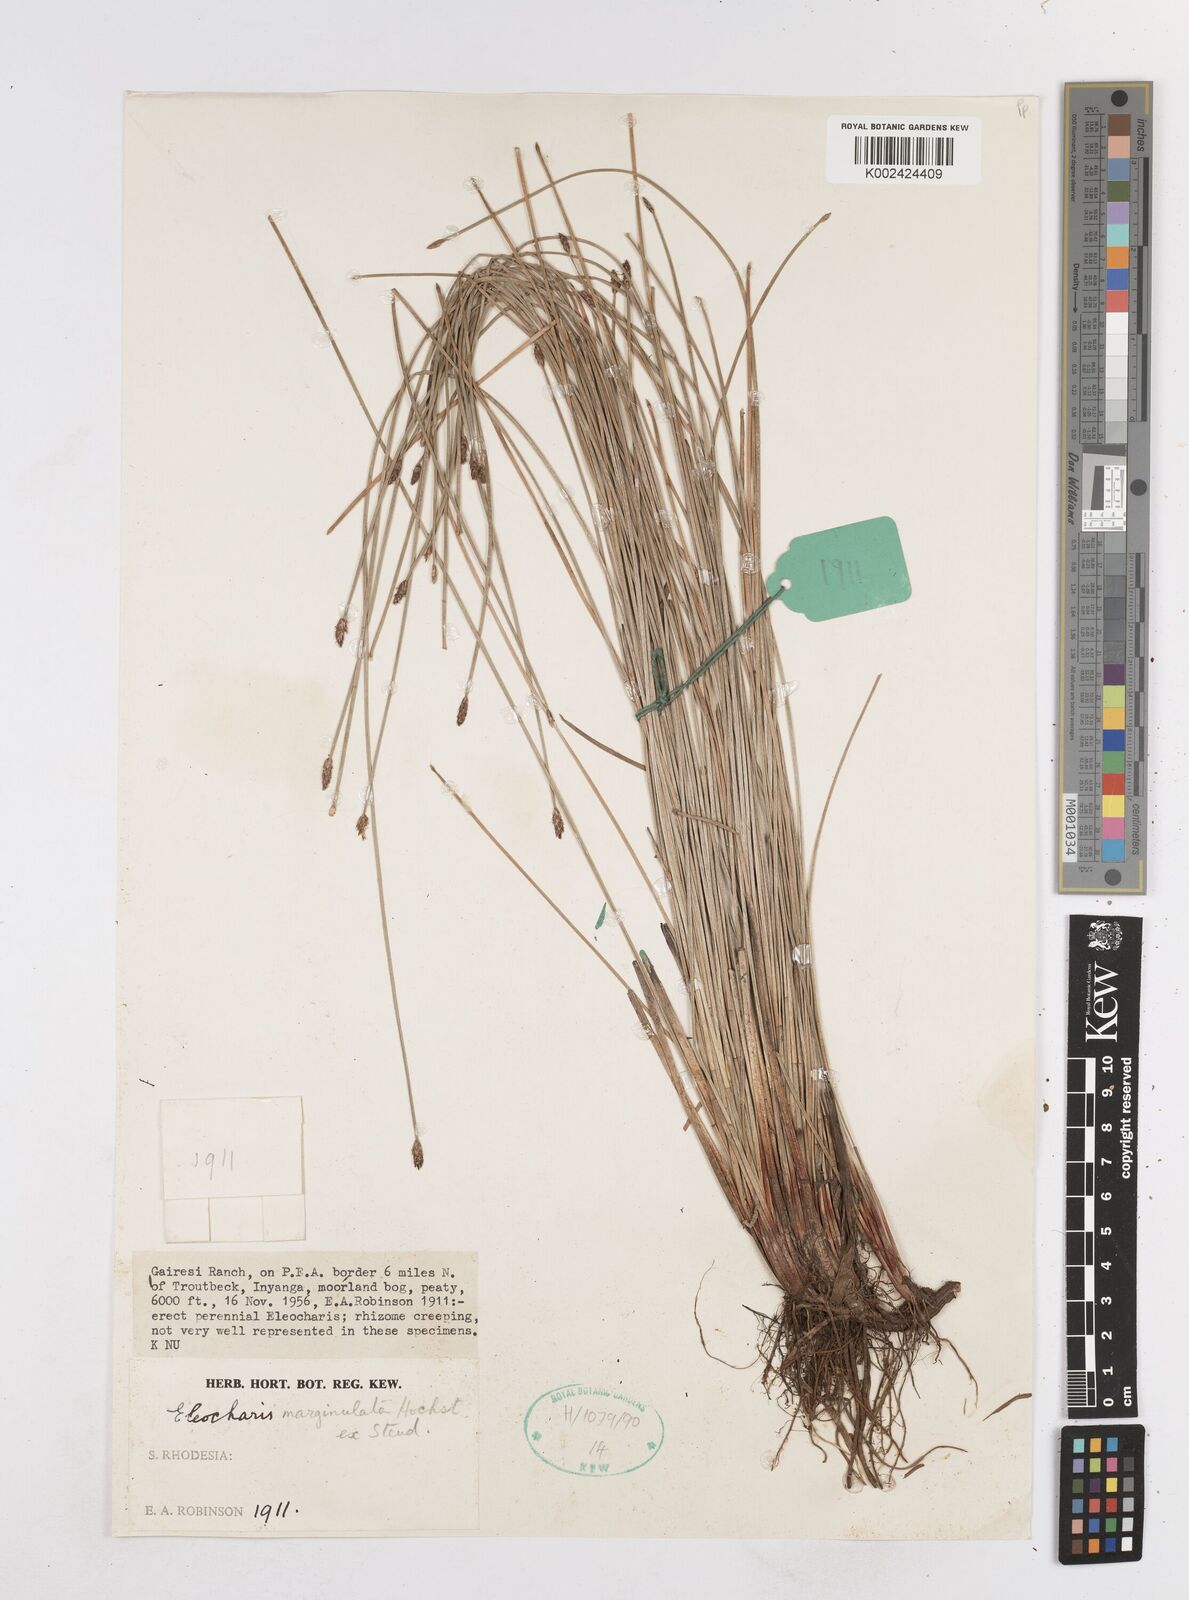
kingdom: Plantae
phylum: Tracheophyta
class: Liliopsida
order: Poales
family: Cyperaceae
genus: Eleocharis
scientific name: Eleocharis marginulata
